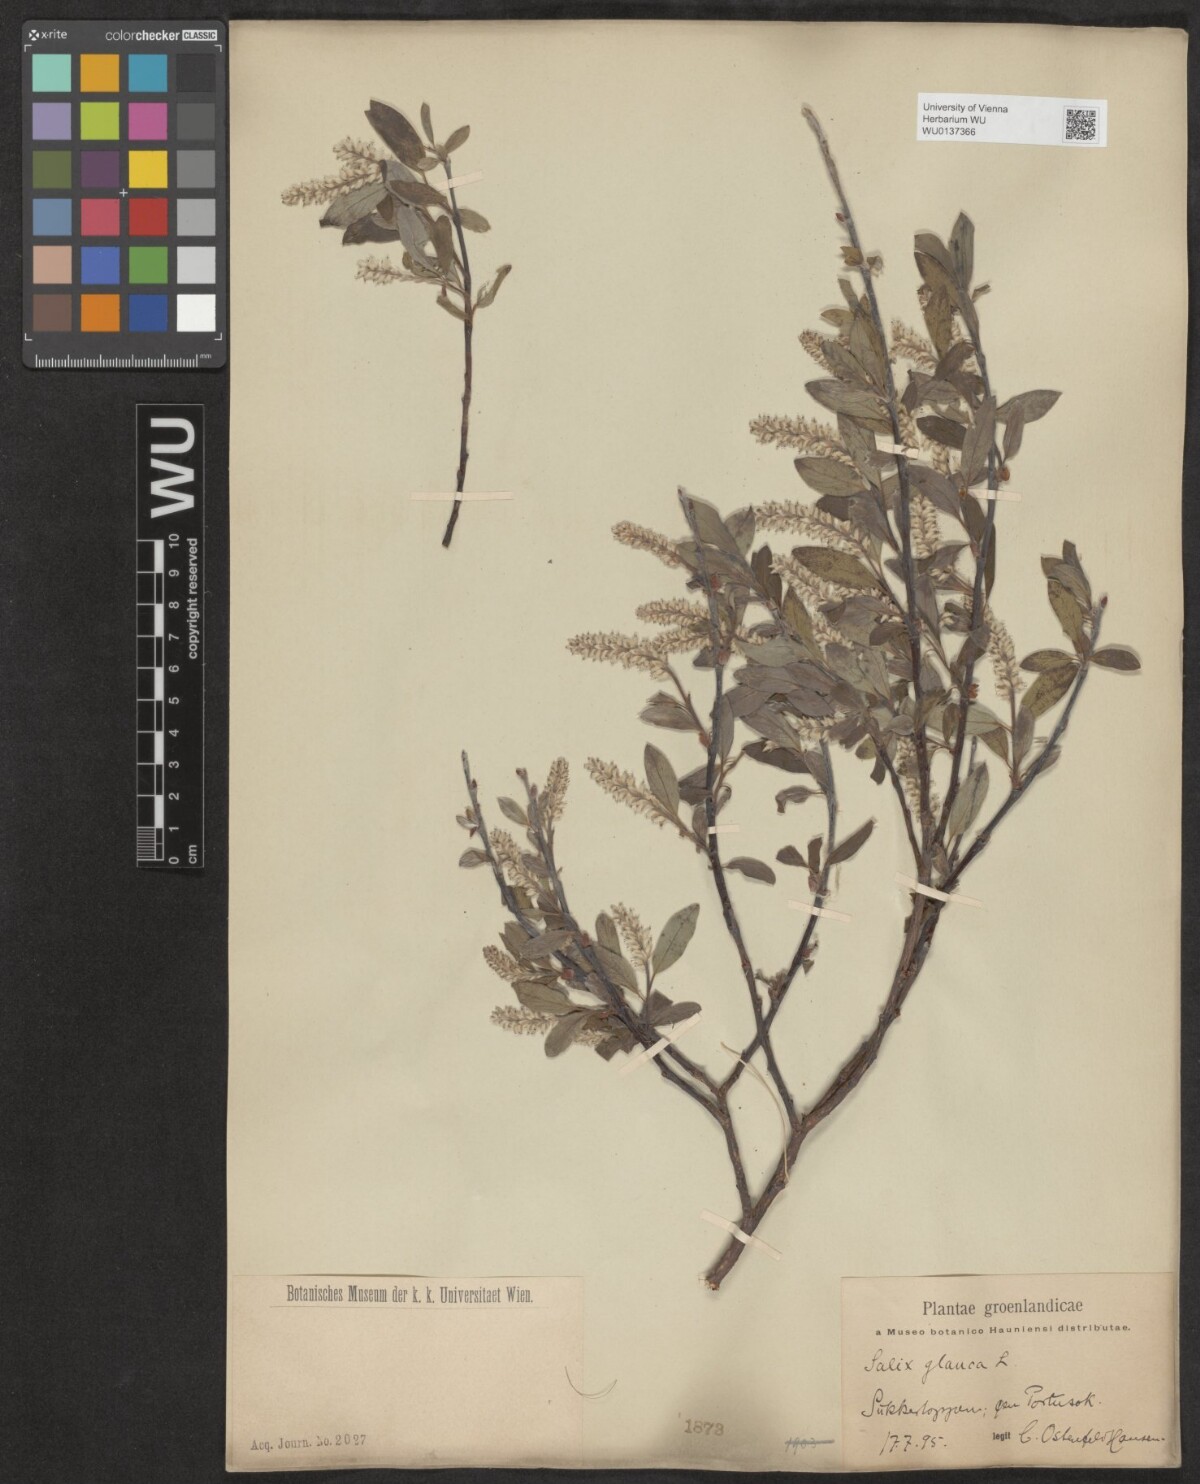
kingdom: Plantae
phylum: Tracheophyta
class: Magnoliopsida
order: Malpighiales
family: Salicaceae
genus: Salix
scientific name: Salix glauca
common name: Glaucous willow
